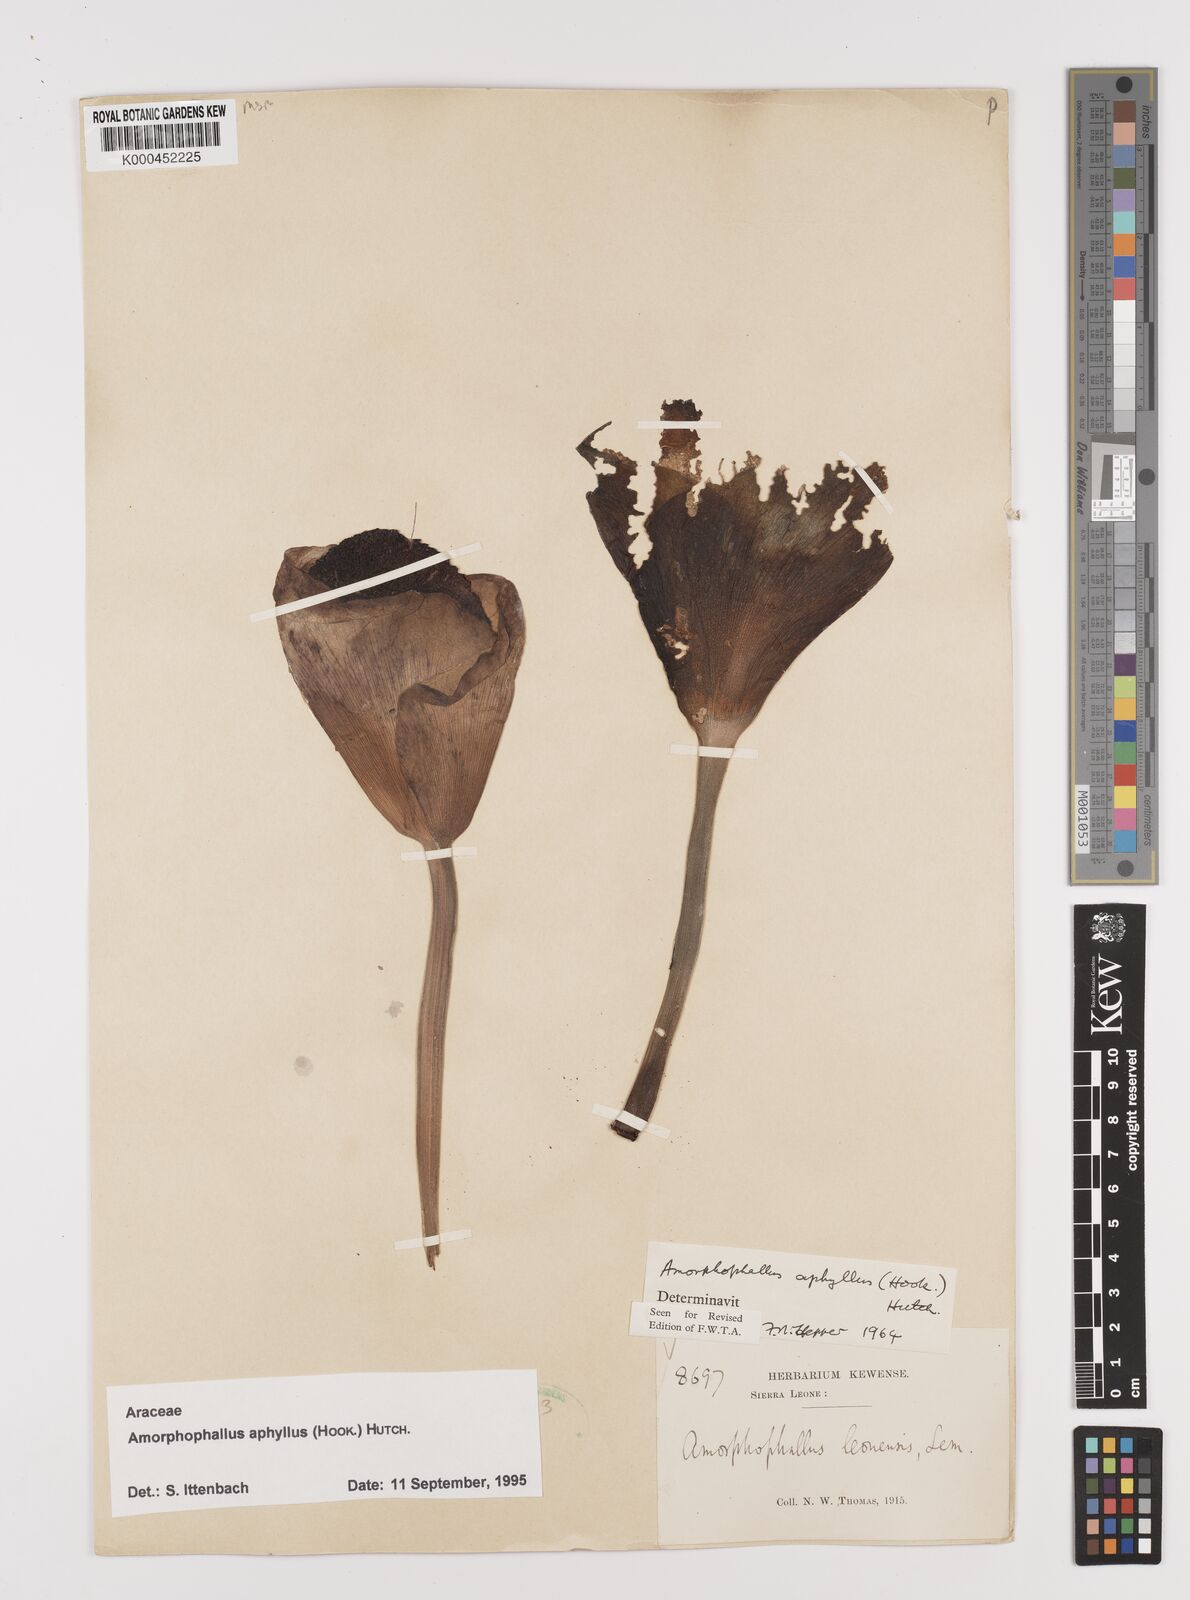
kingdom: Plantae
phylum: Tracheophyta
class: Liliopsida
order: Alismatales
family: Araceae
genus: Amorphophallus
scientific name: Amorphophallus aphyllus
